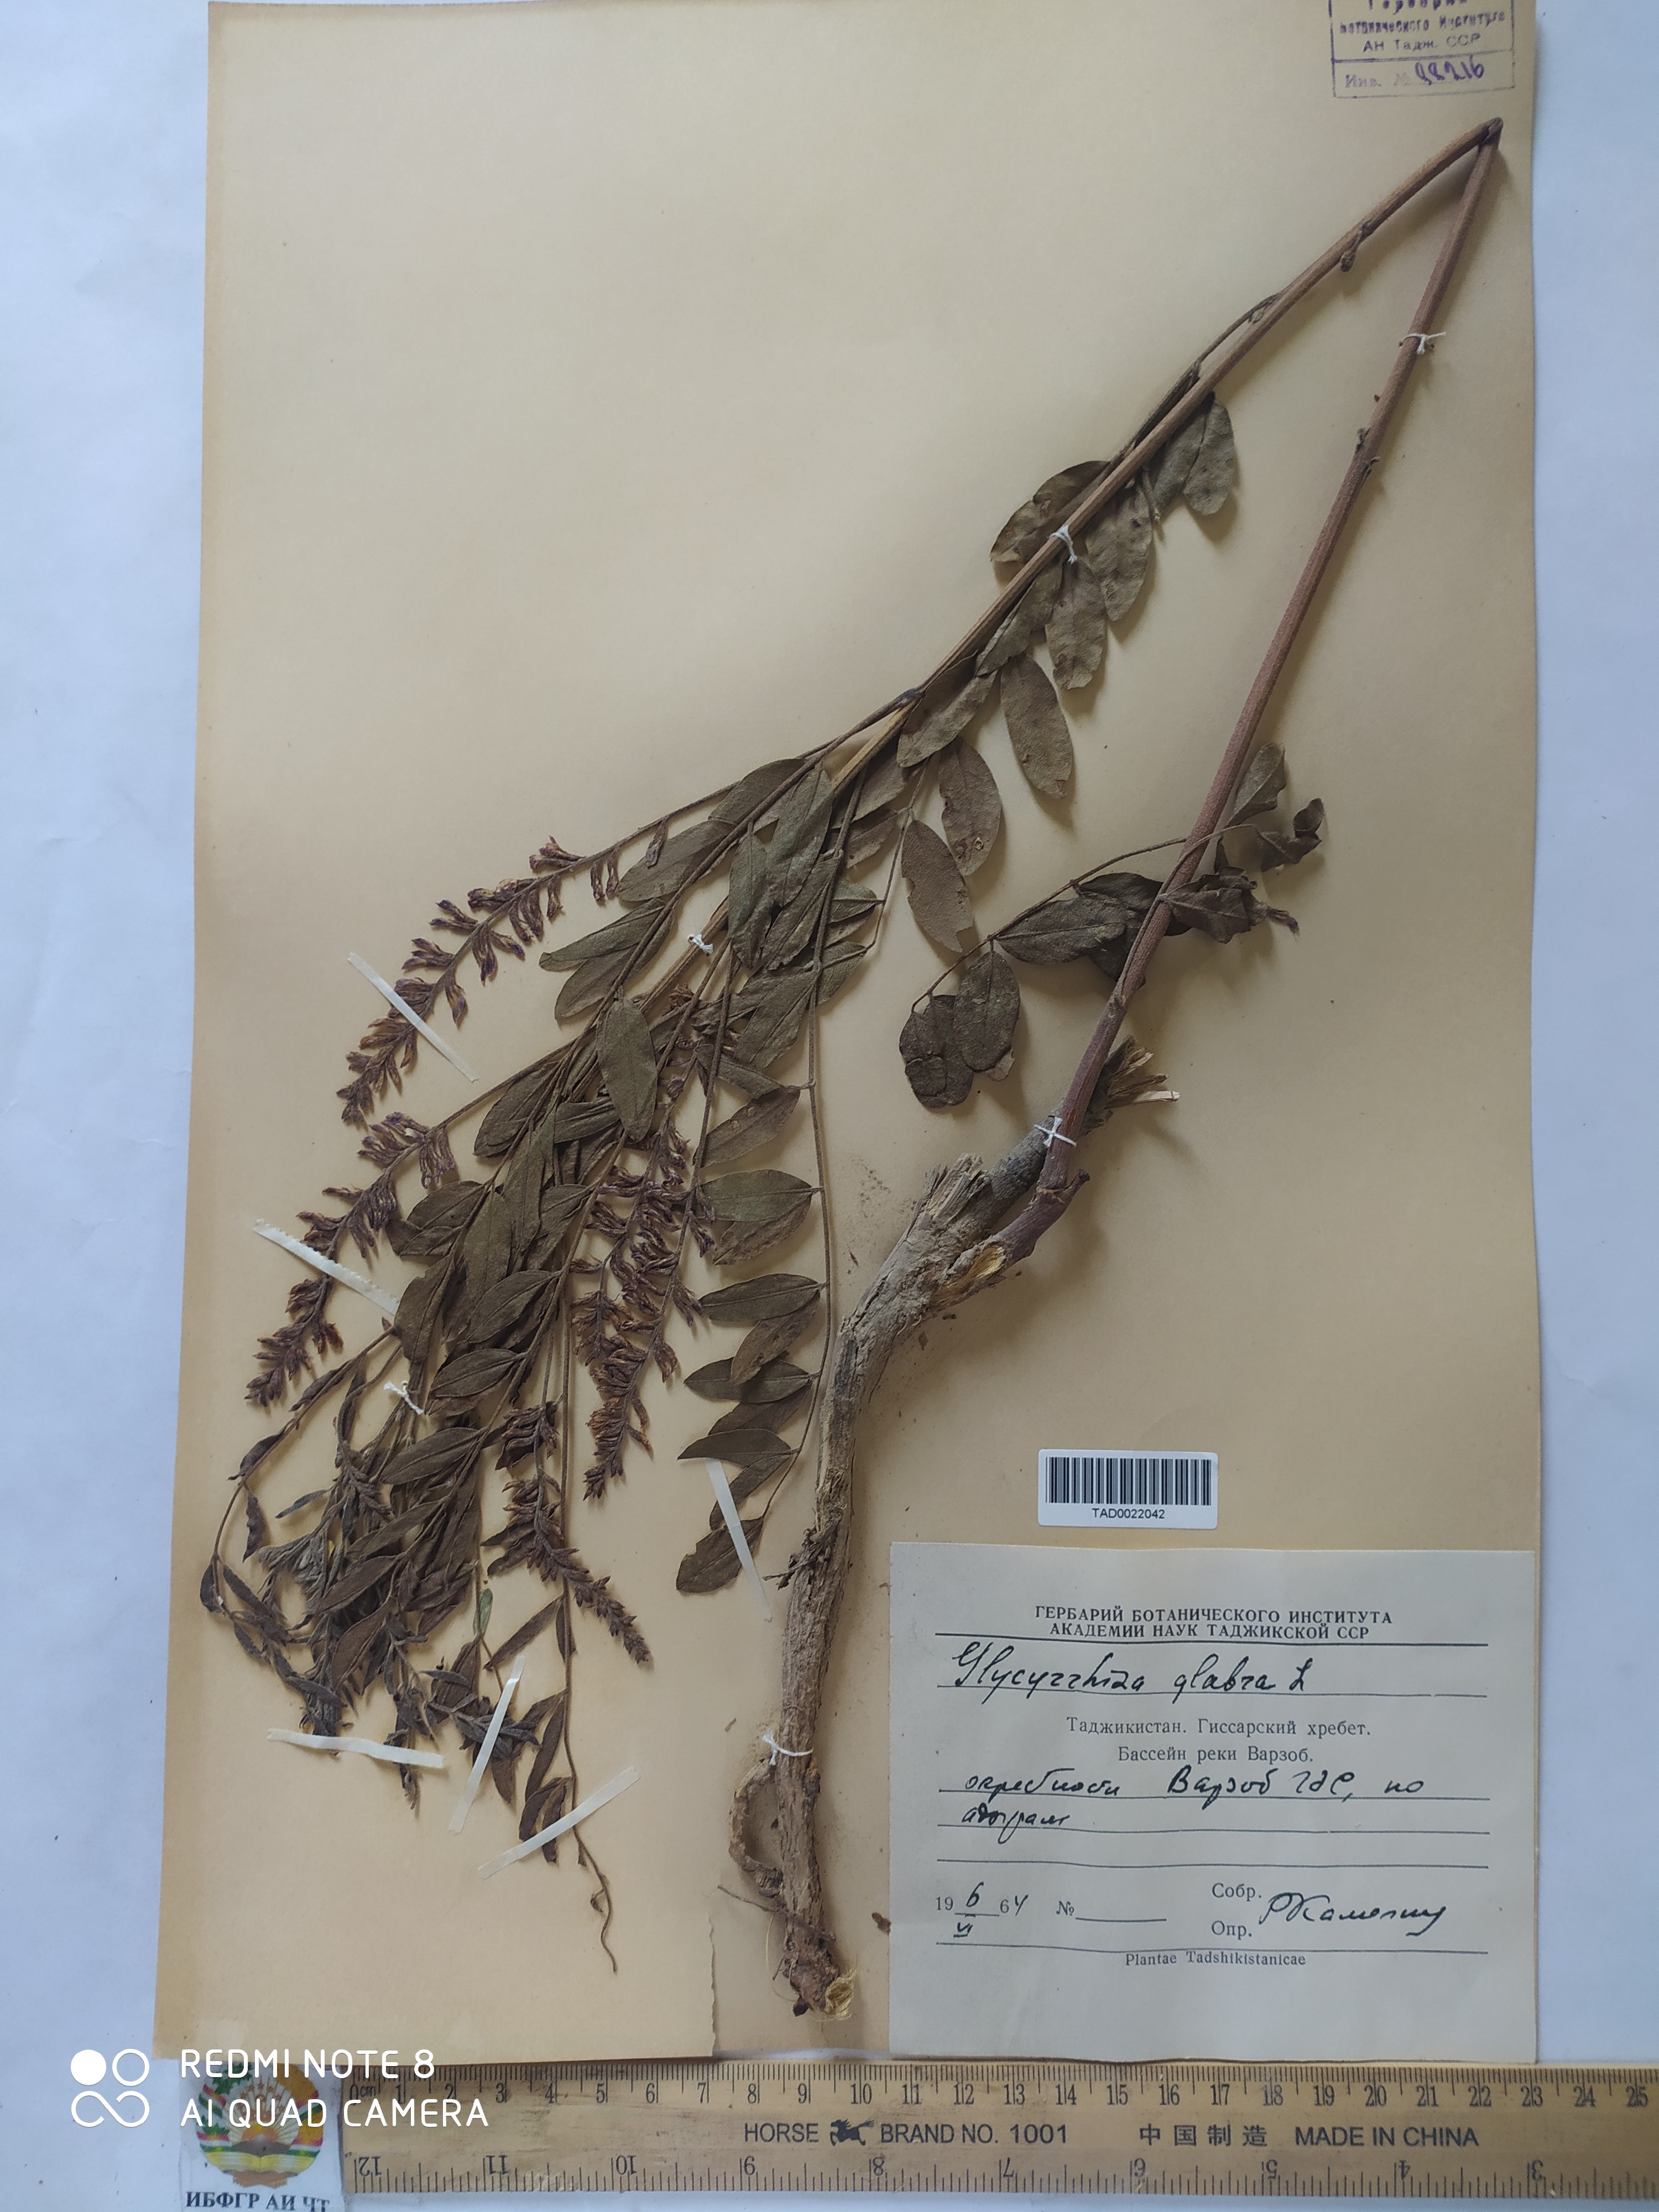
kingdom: Plantae
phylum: Tracheophyta
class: Magnoliopsida
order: Fabales
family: Fabaceae
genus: Glycyrrhiza
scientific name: Glycyrrhiza glabra
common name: Liquorice
